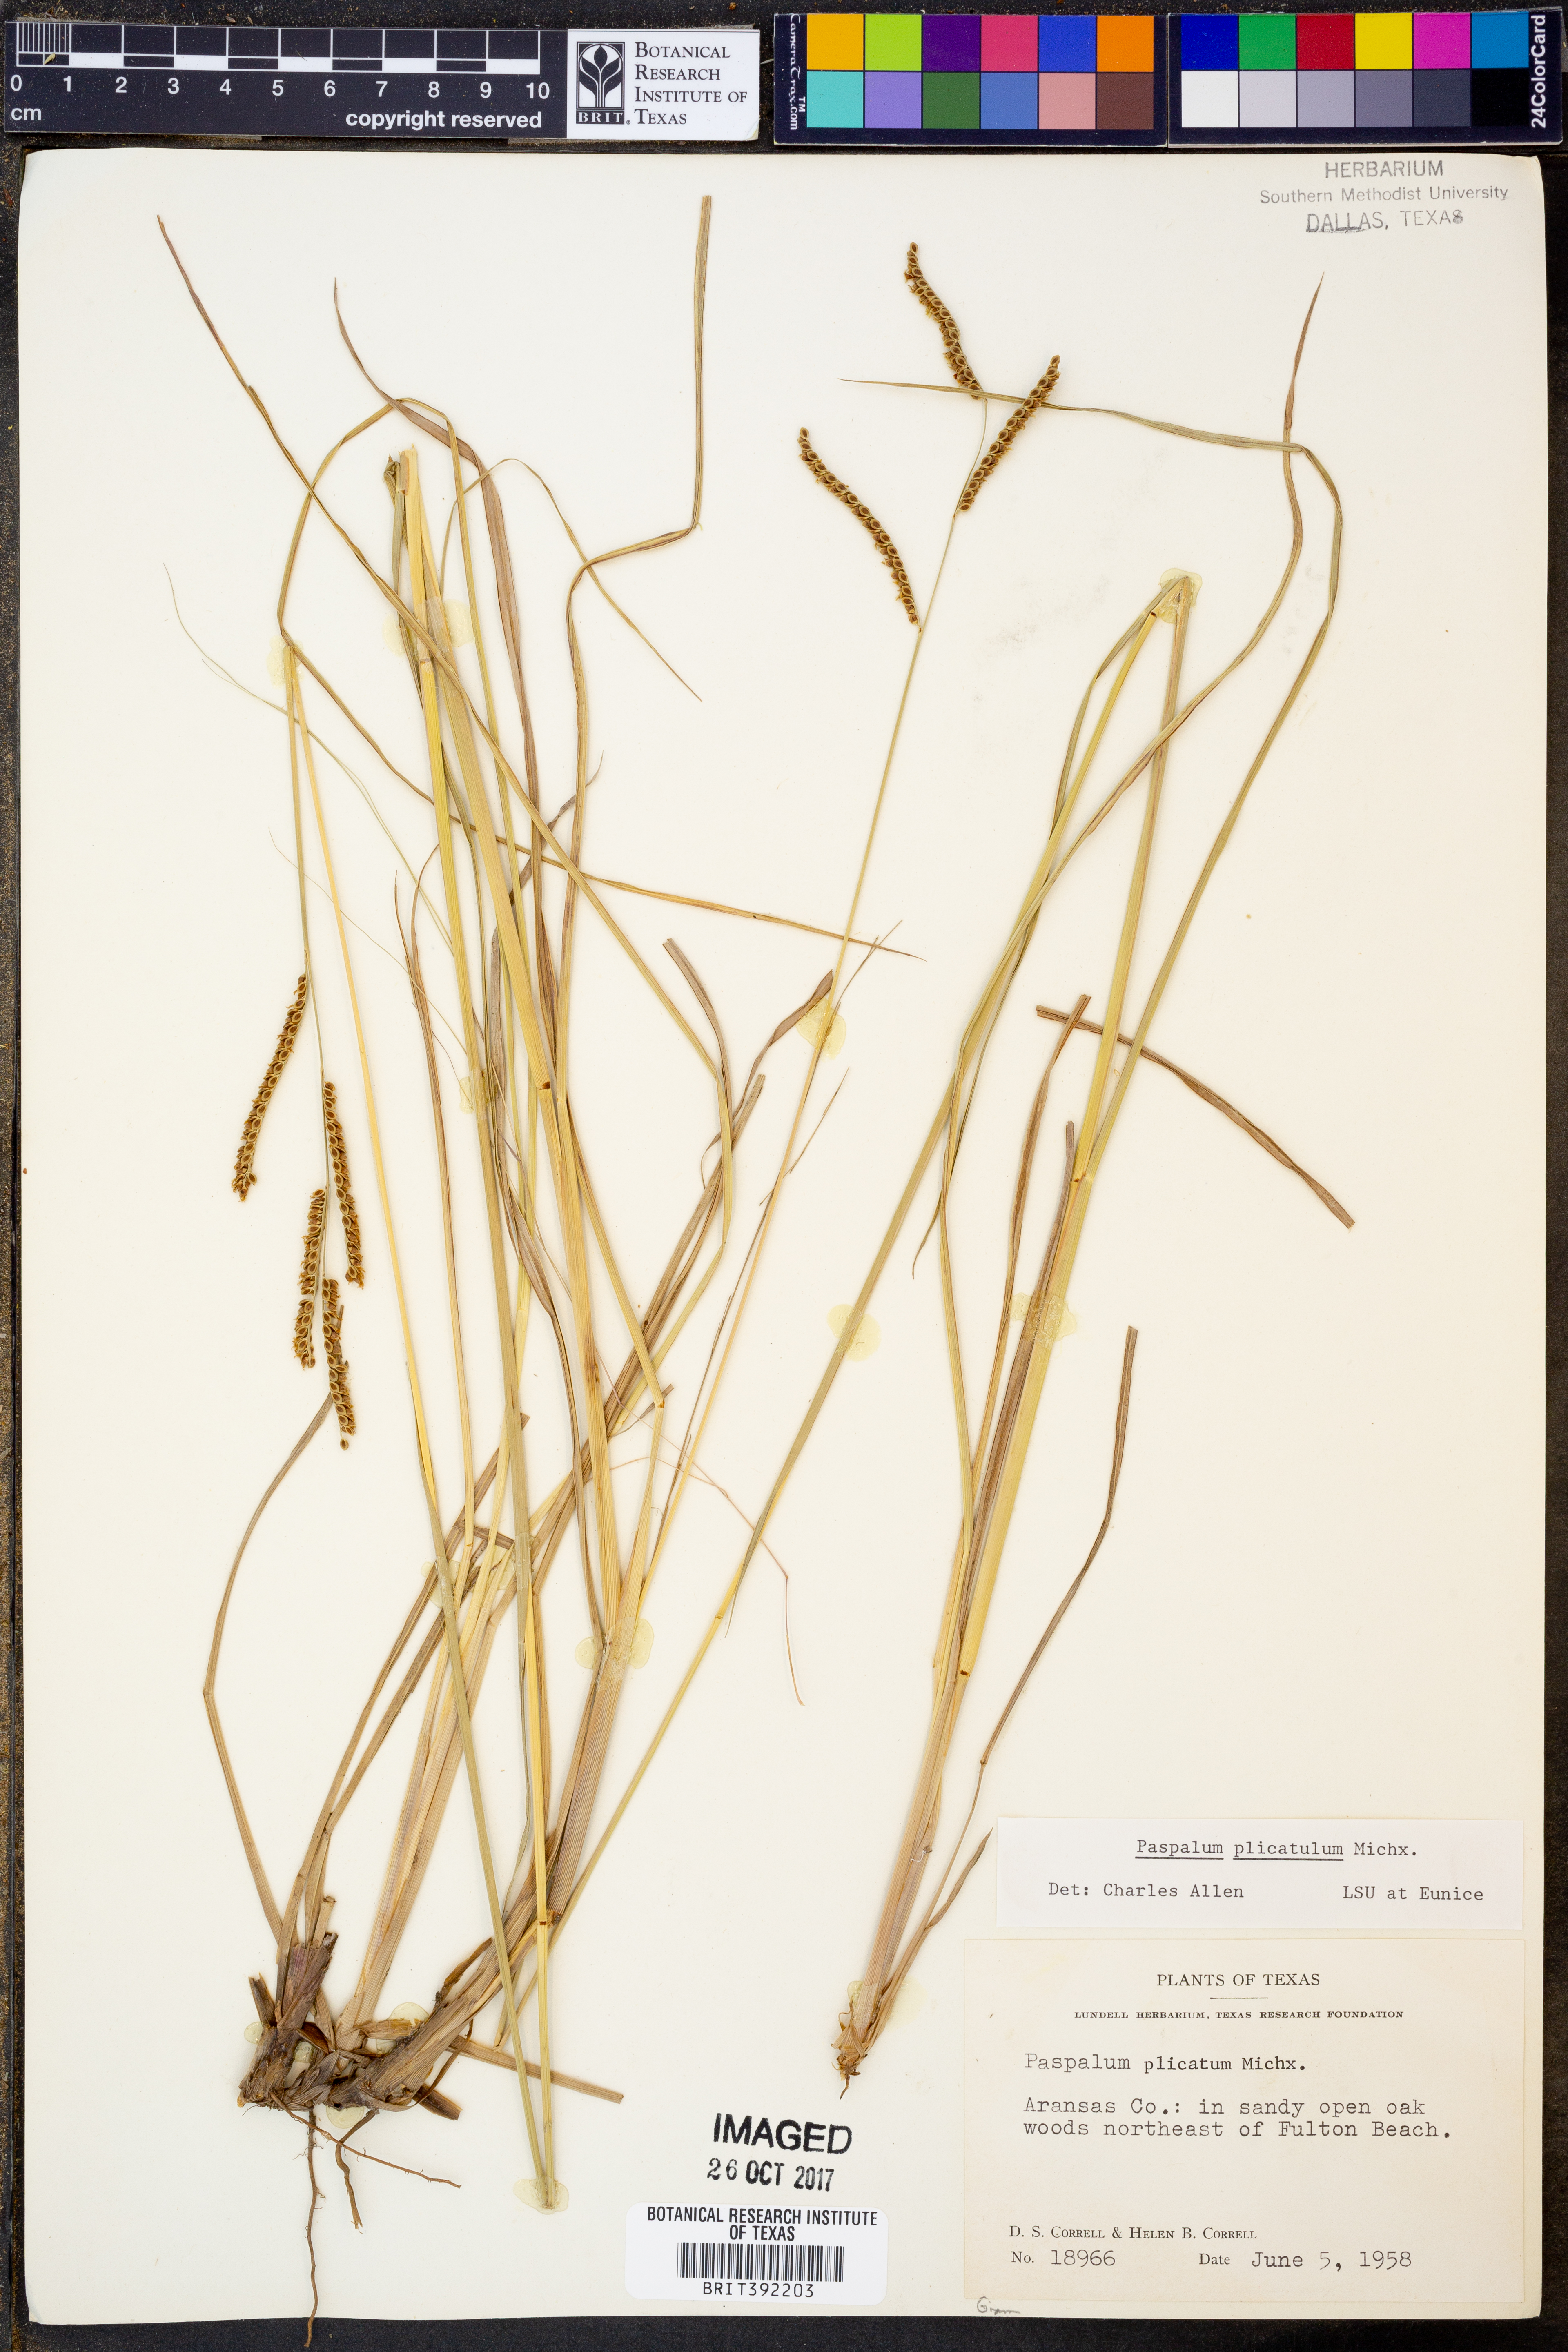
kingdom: Plantae
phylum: Tracheophyta
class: Liliopsida
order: Poales
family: Poaceae
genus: Paspalum
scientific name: Paspalum plicatulum
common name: Top paspalum
